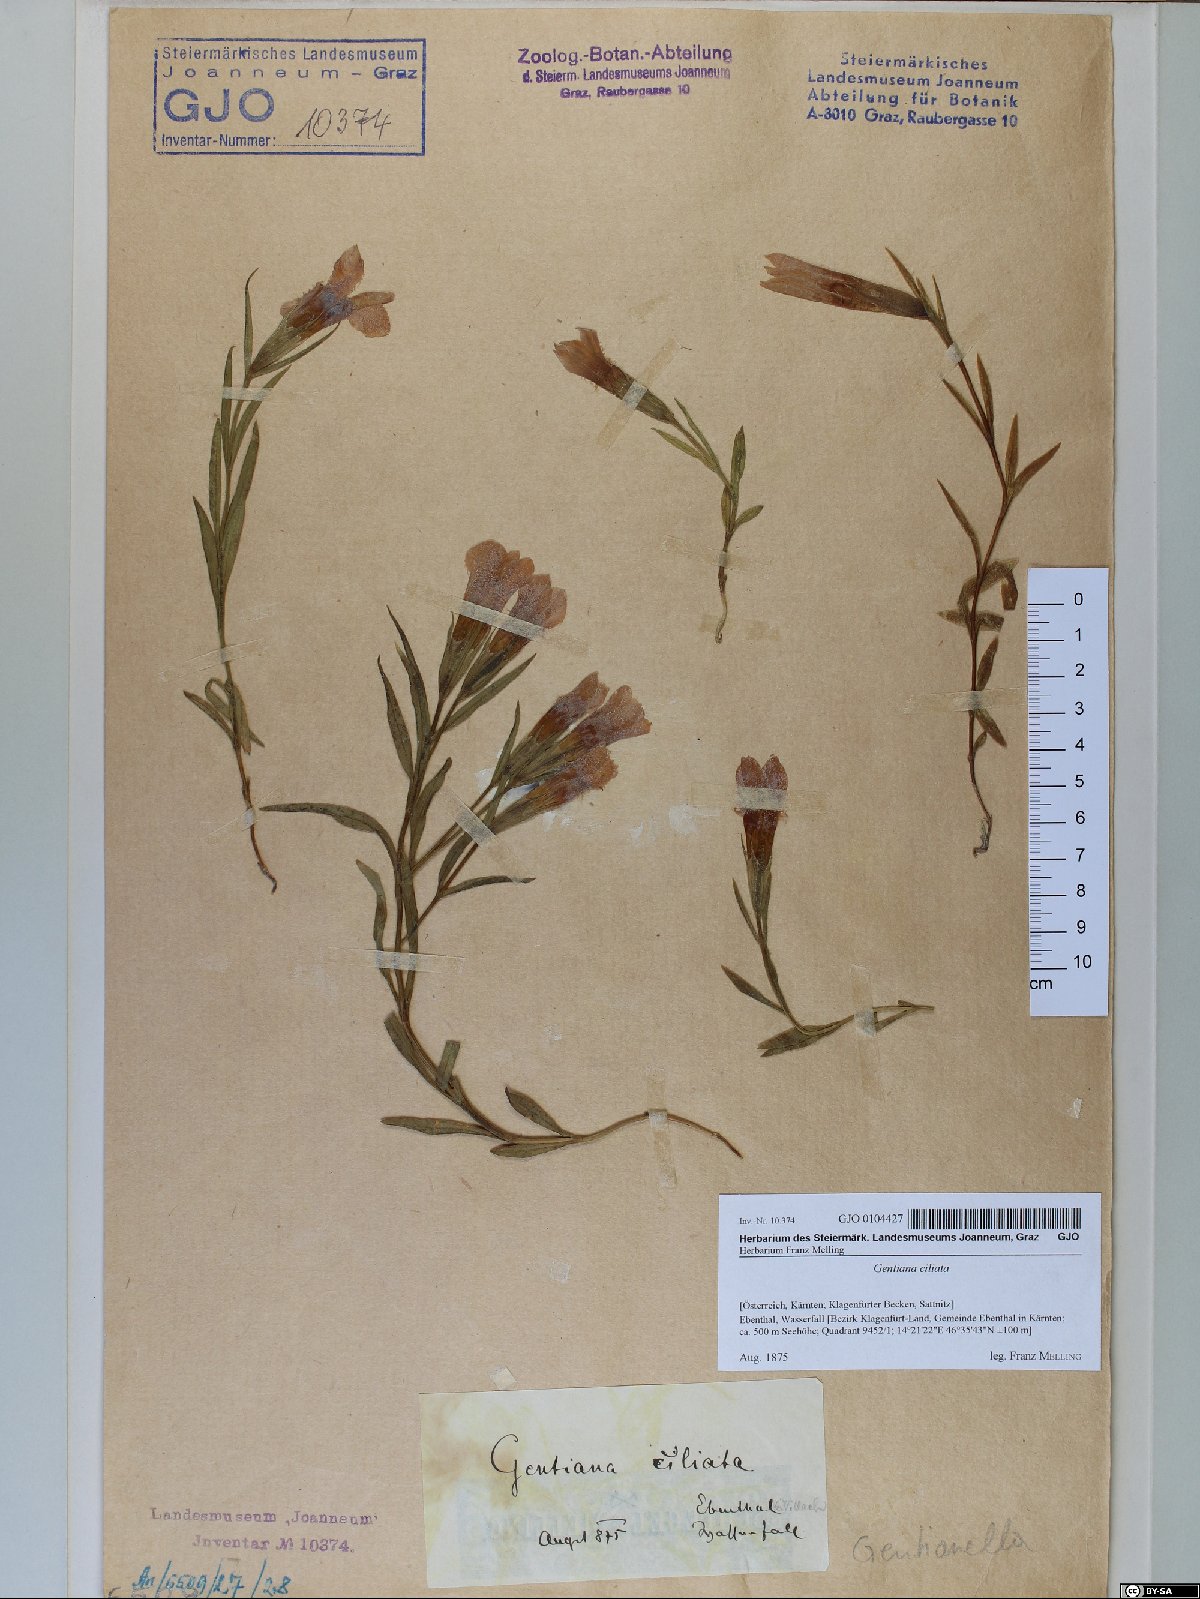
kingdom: Plantae
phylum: Tracheophyta
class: Magnoliopsida
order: Gentianales
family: Gentianaceae
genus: Gentianopsis
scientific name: Gentianopsis ciliata
